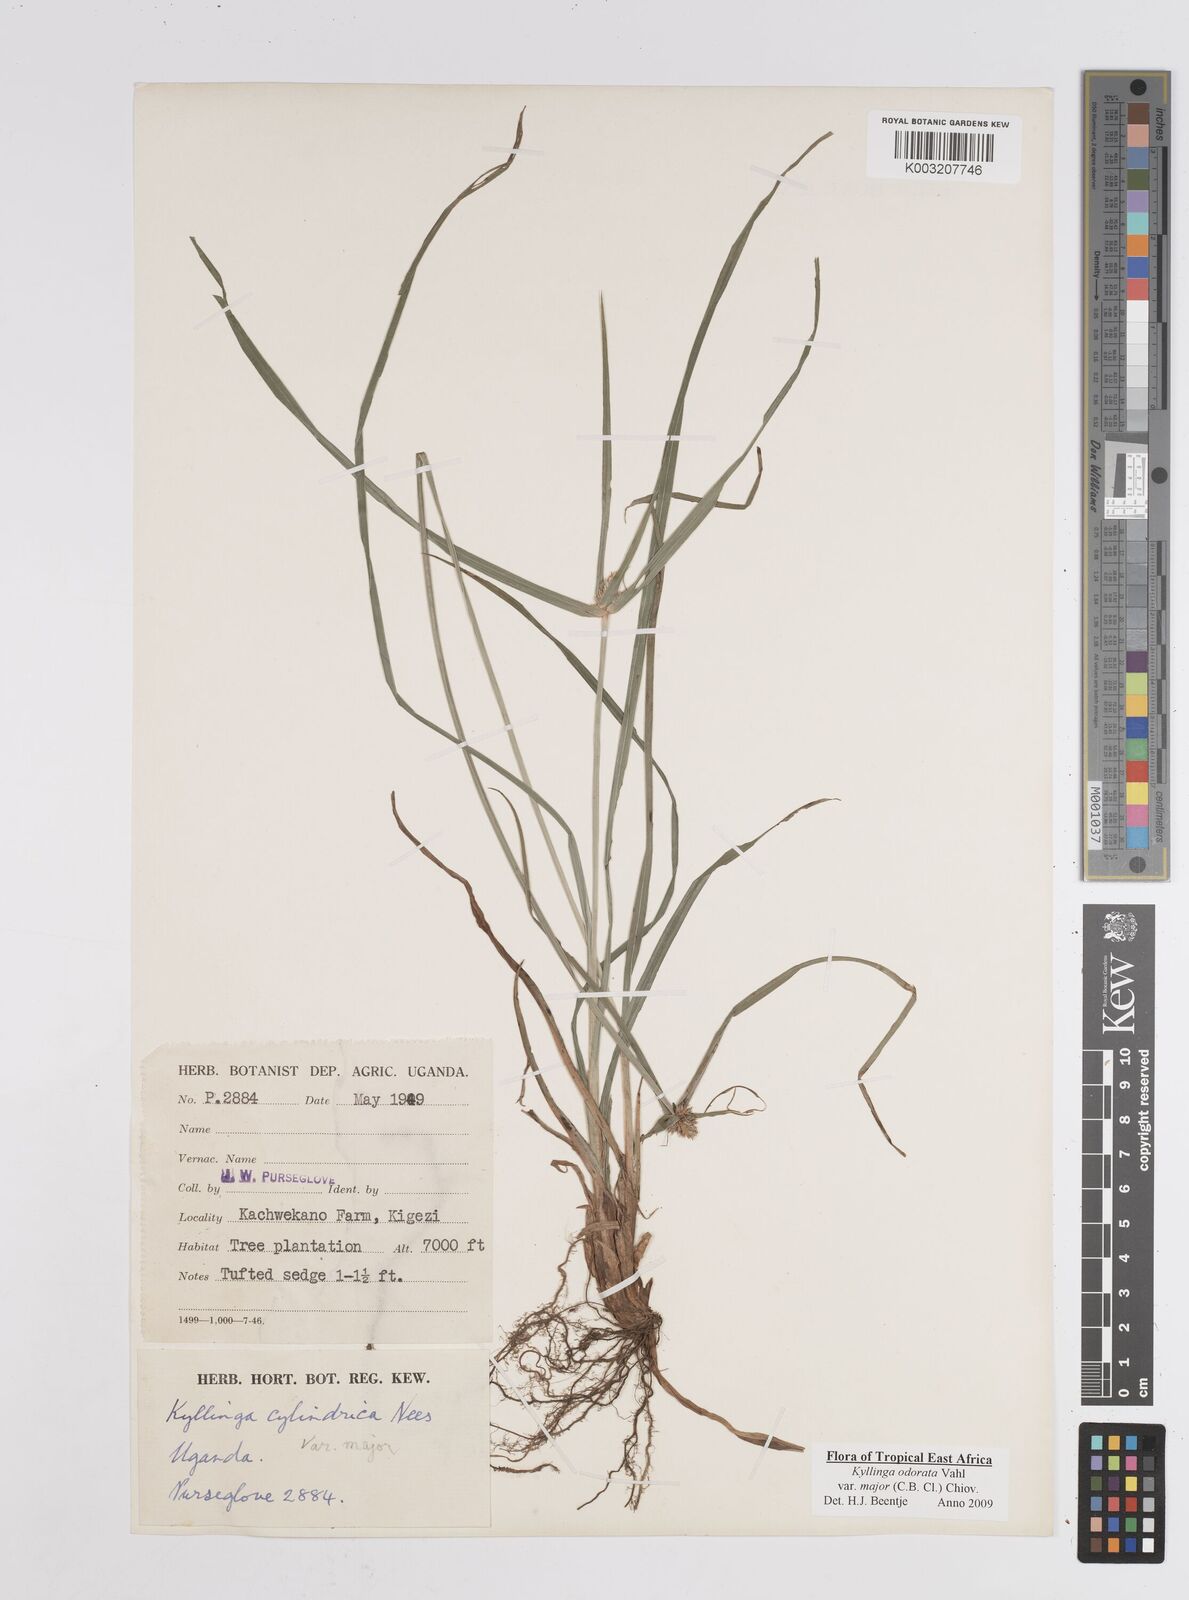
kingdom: Plantae
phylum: Tracheophyta
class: Liliopsida
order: Poales
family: Cyperaceae
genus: Cyperus
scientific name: Cyperus
